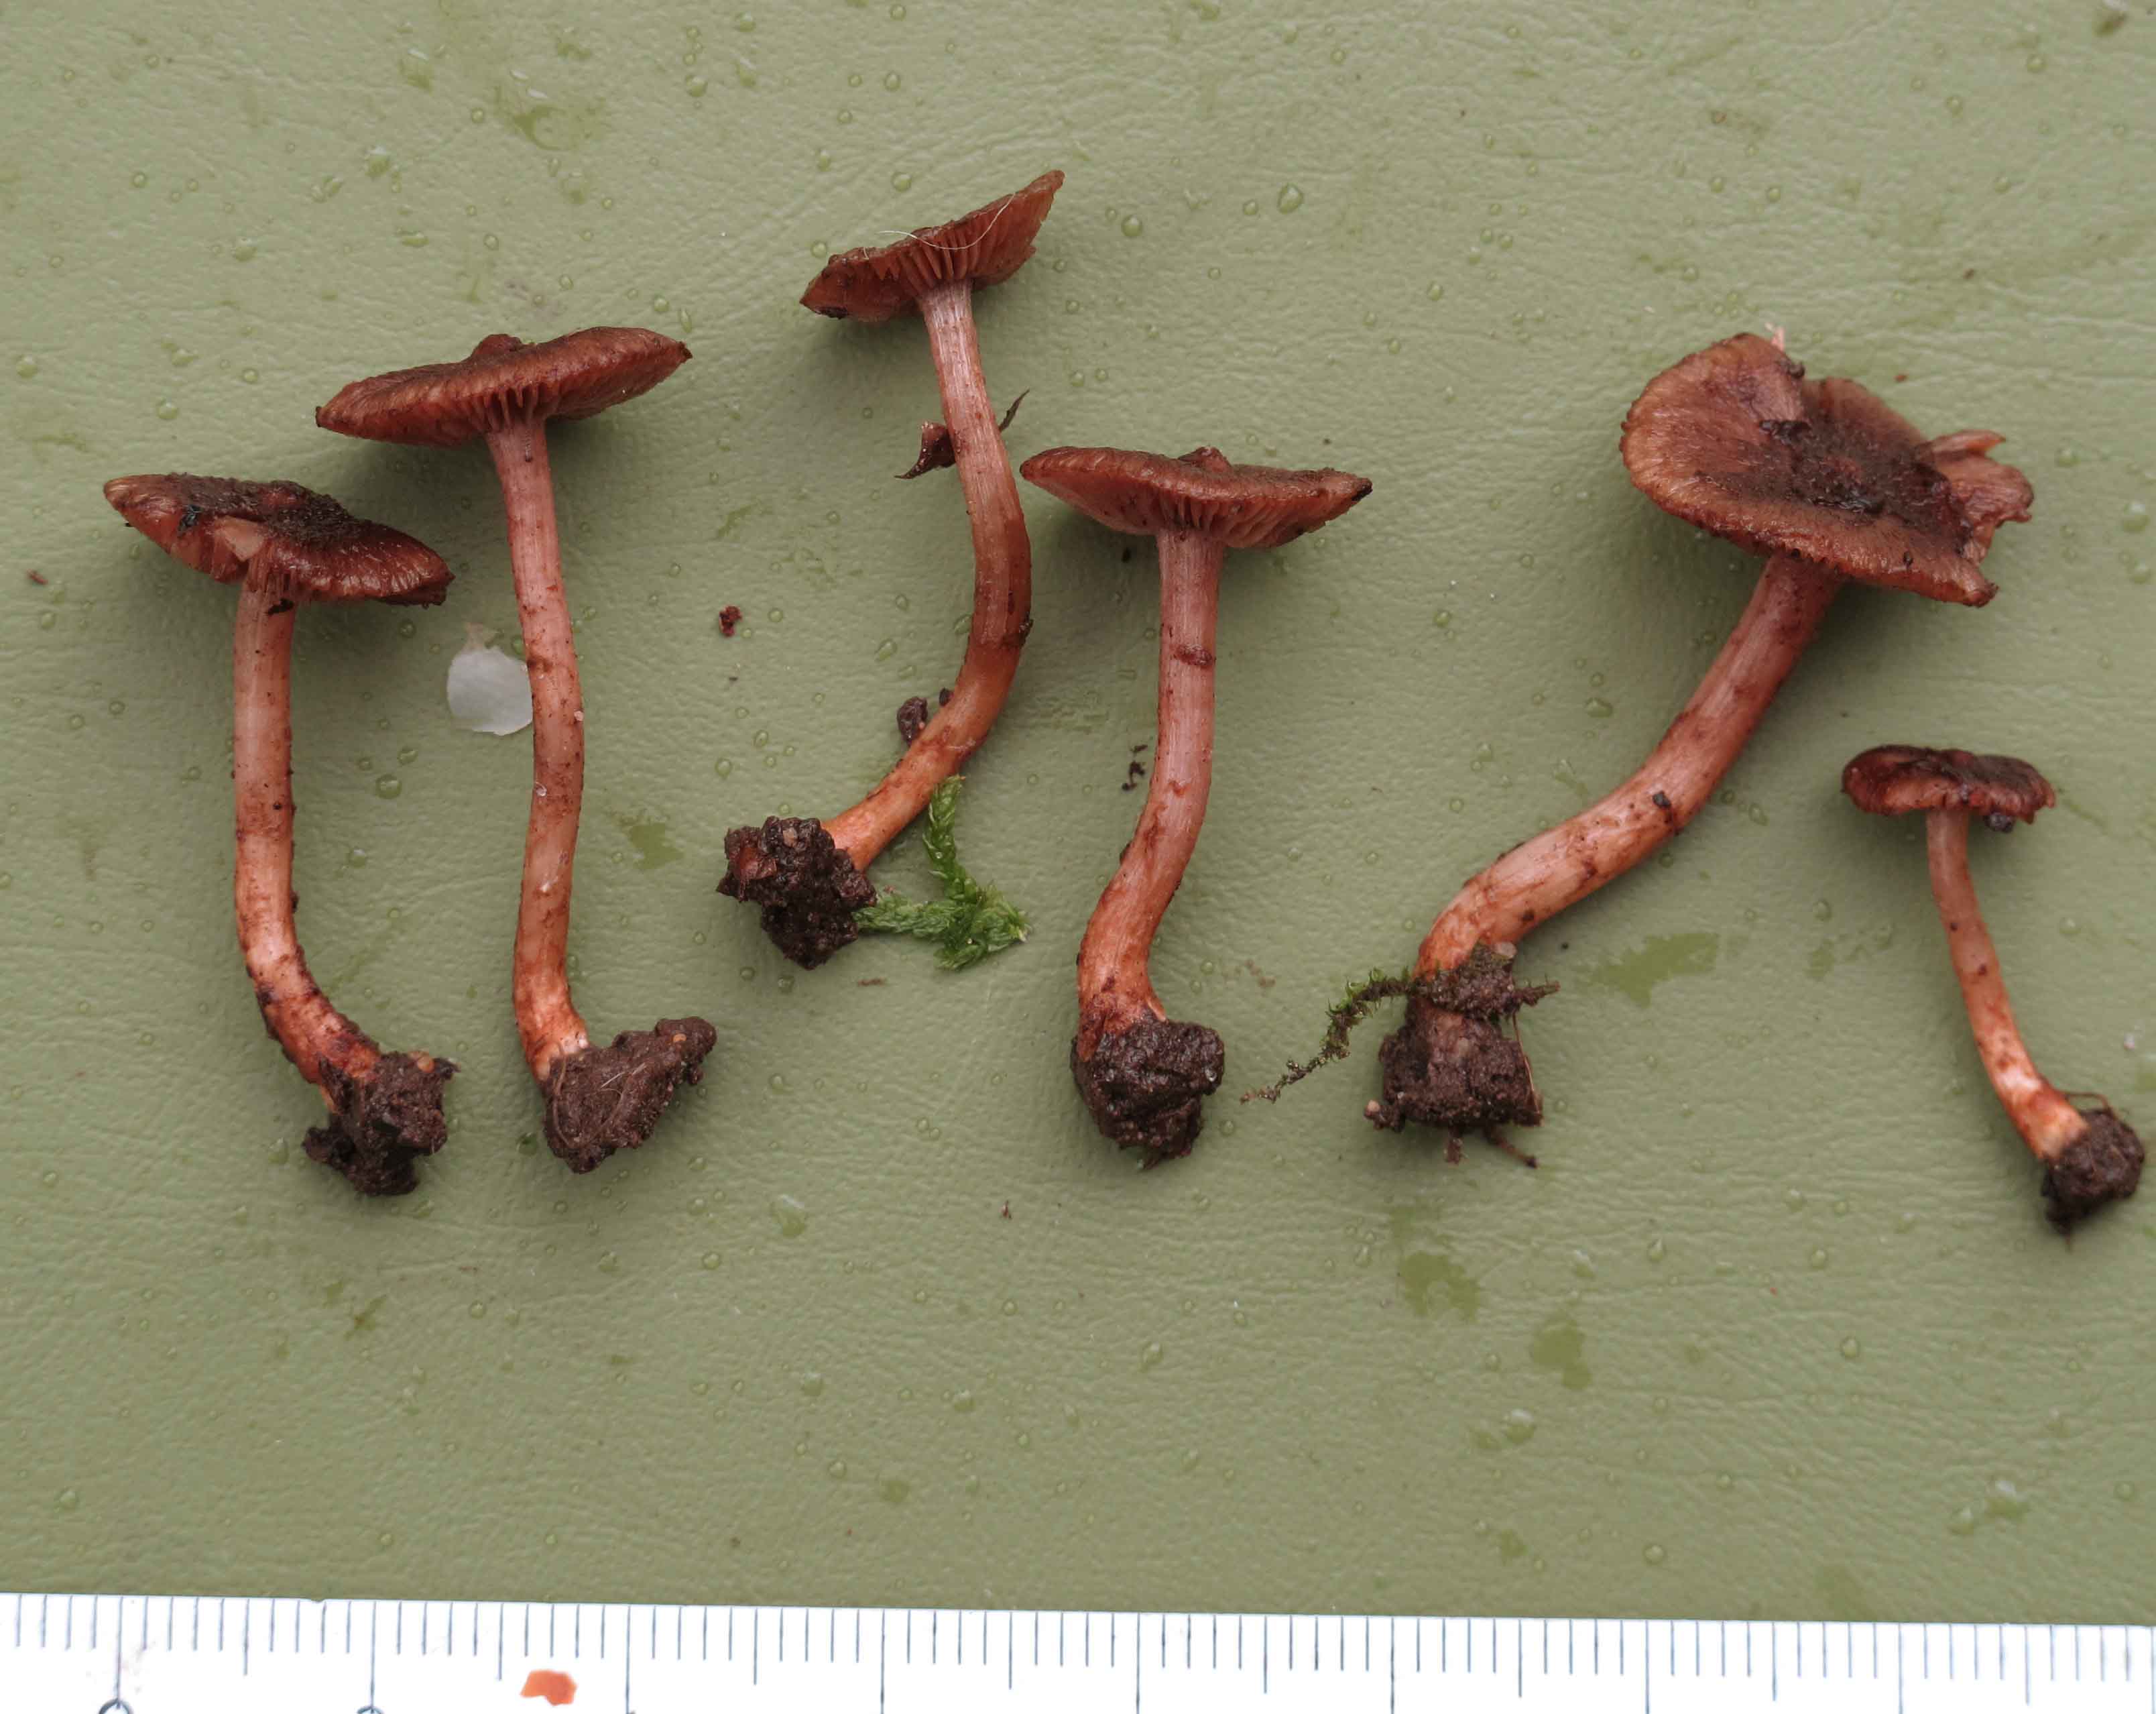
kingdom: Fungi
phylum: Basidiomycota
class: Agaricomycetes
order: Agaricales
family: Inocybaceae
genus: Inocybe
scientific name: Inocybe cincinnata
